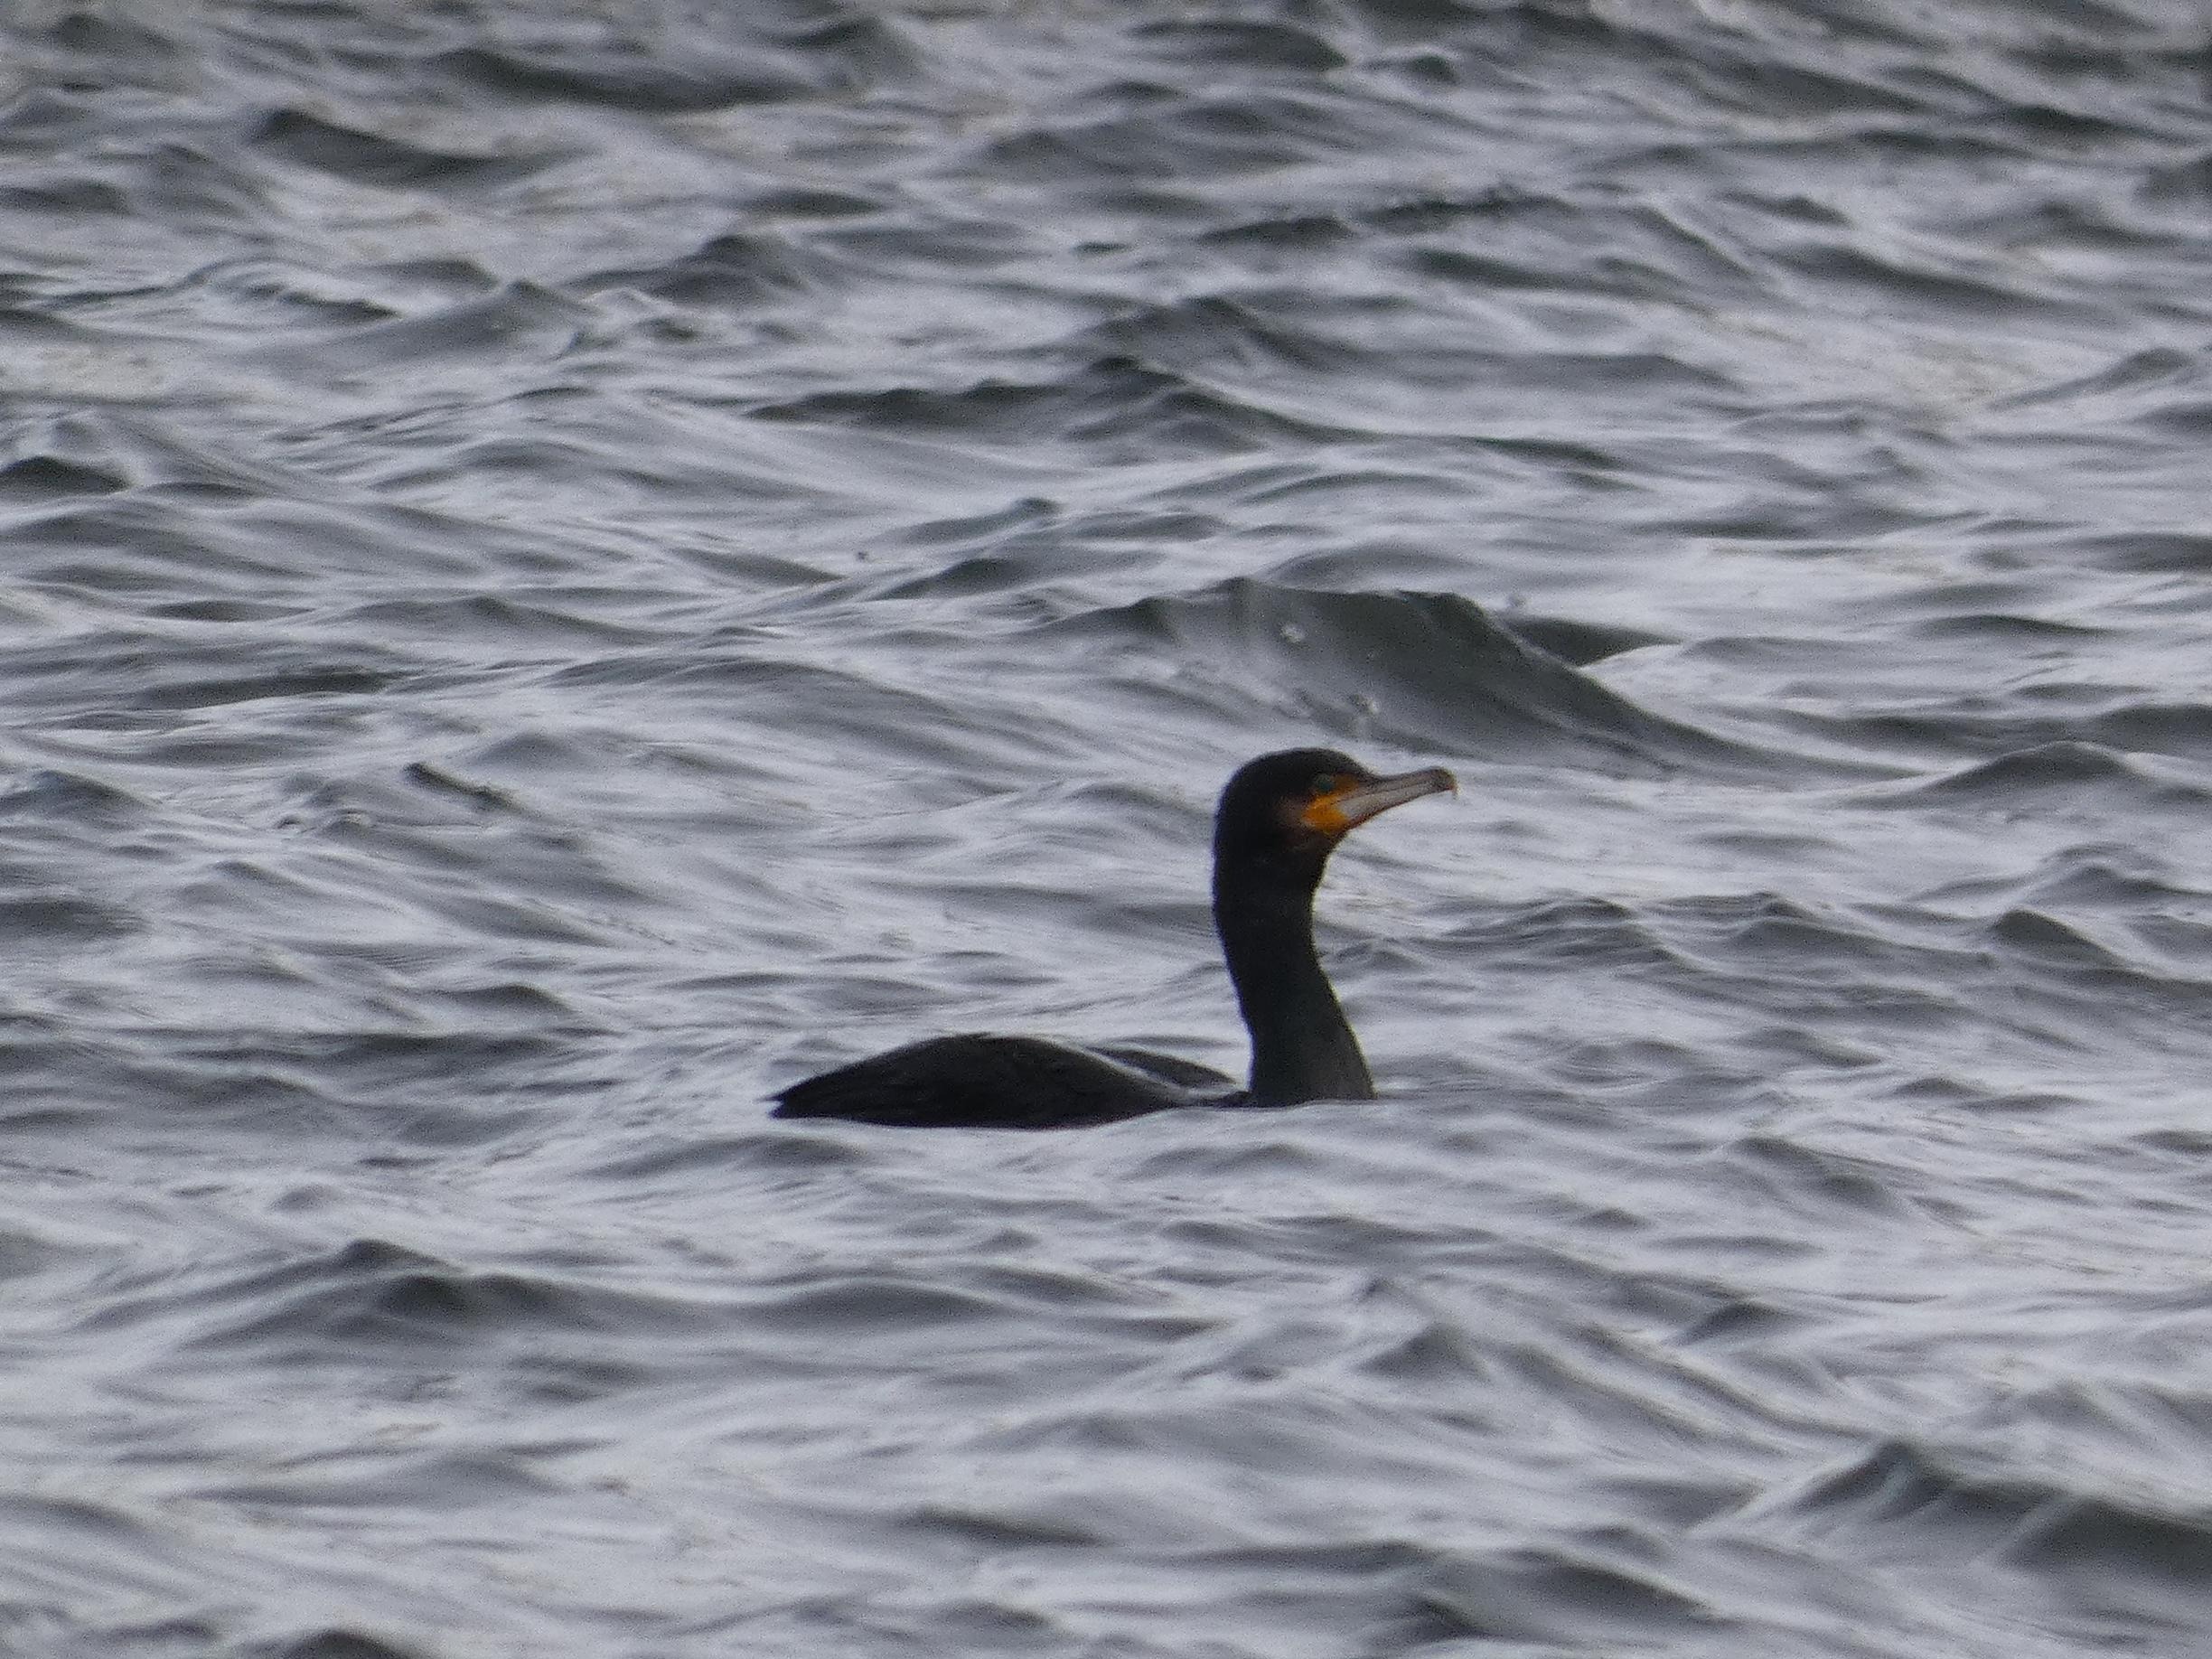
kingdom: Animalia
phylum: Chordata
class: Aves
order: Suliformes
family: Phalacrocoracidae
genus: Phalacrocorax
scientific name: Phalacrocorax carbo
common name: Skarv
